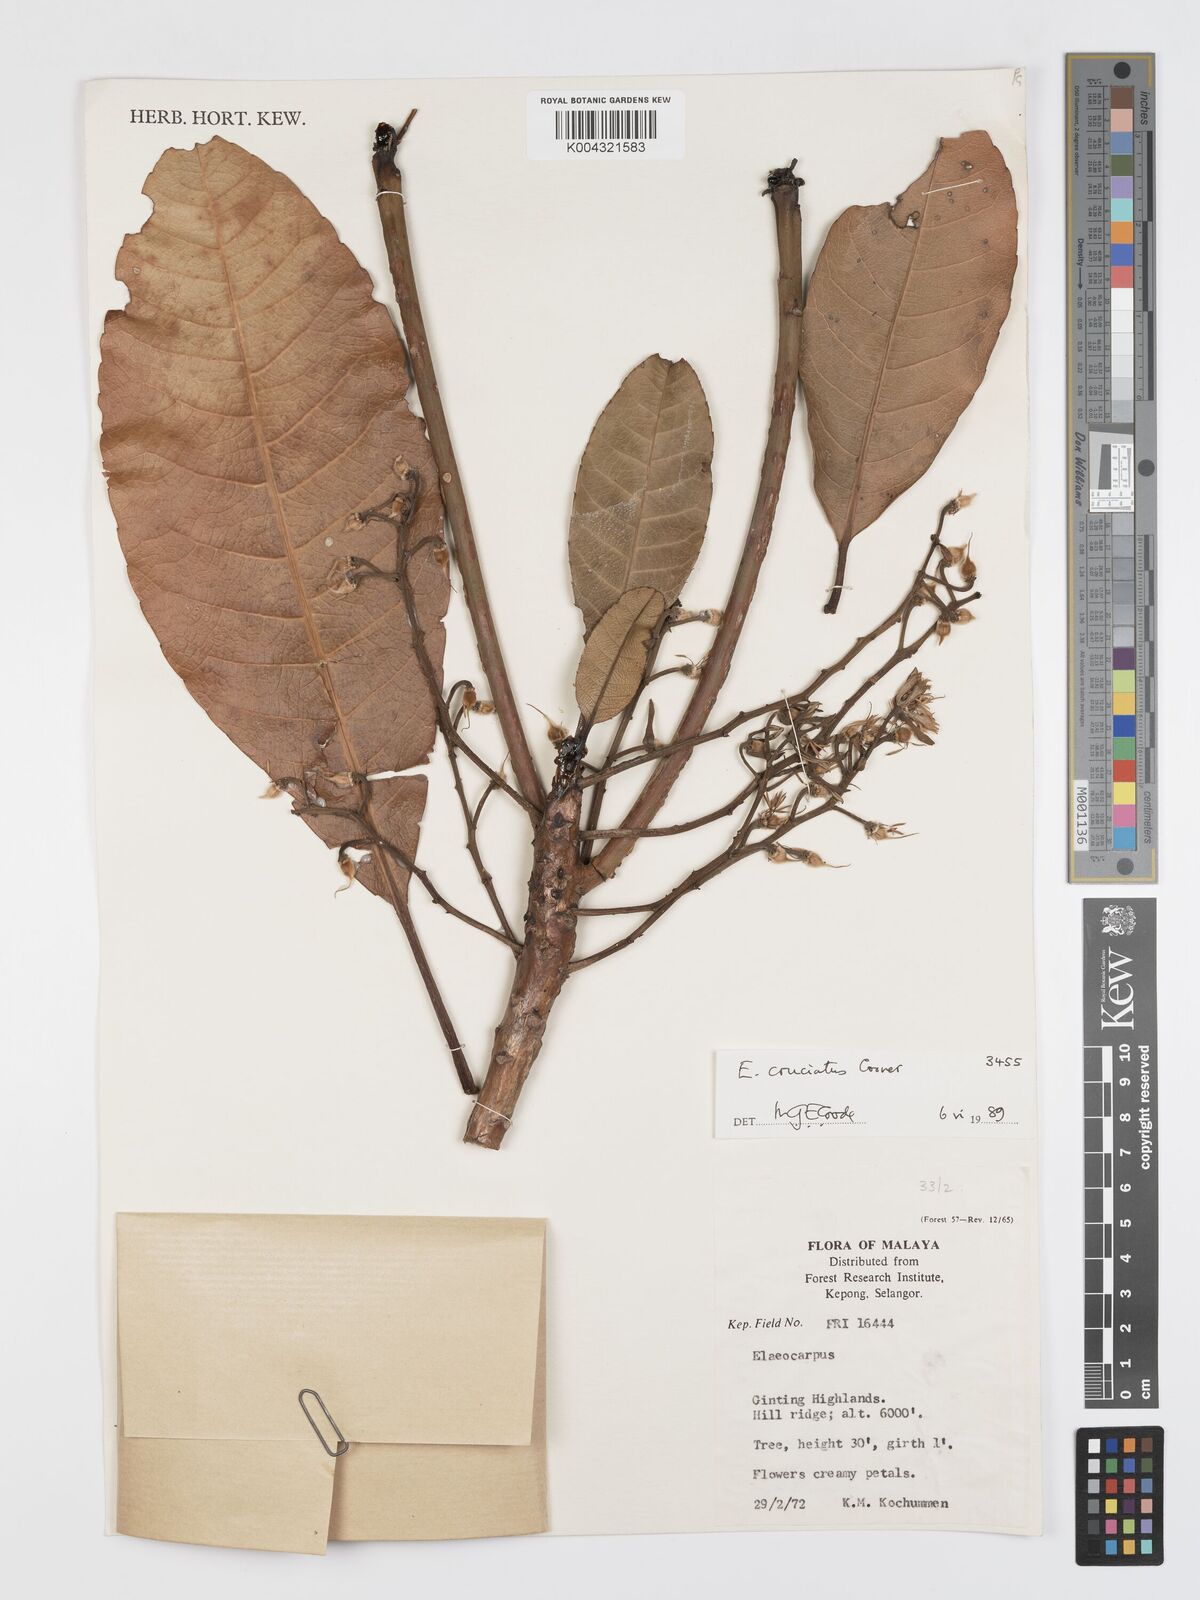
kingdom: Plantae
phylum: Tracheophyta
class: Magnoliopsida
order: Oxalidales
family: Elaeocarpaceae
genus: Elaeocarpus
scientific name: Elaeocarpus cruciatus
